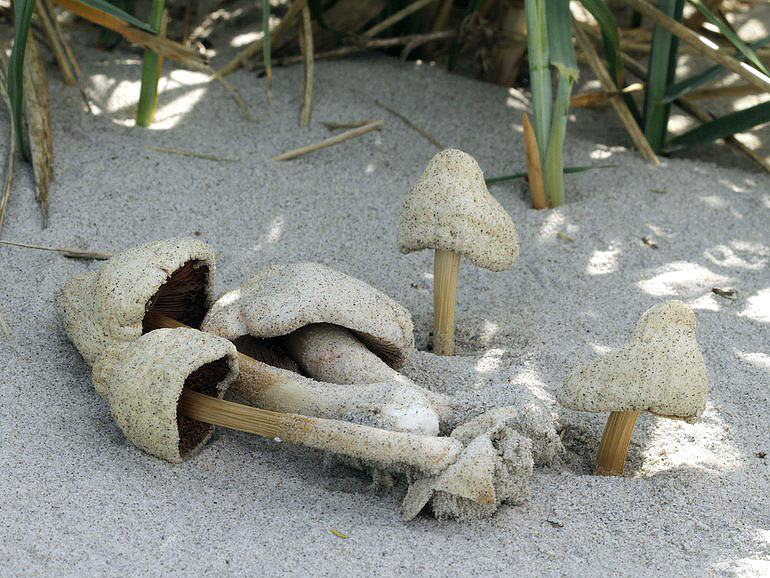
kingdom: Fungi
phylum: Basidiomycota
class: Agaricomycetes
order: Agaricales
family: Pluteaceae
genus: Volvopluteus
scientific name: Volvopluteus gloiocephalus
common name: høj posesvamp
